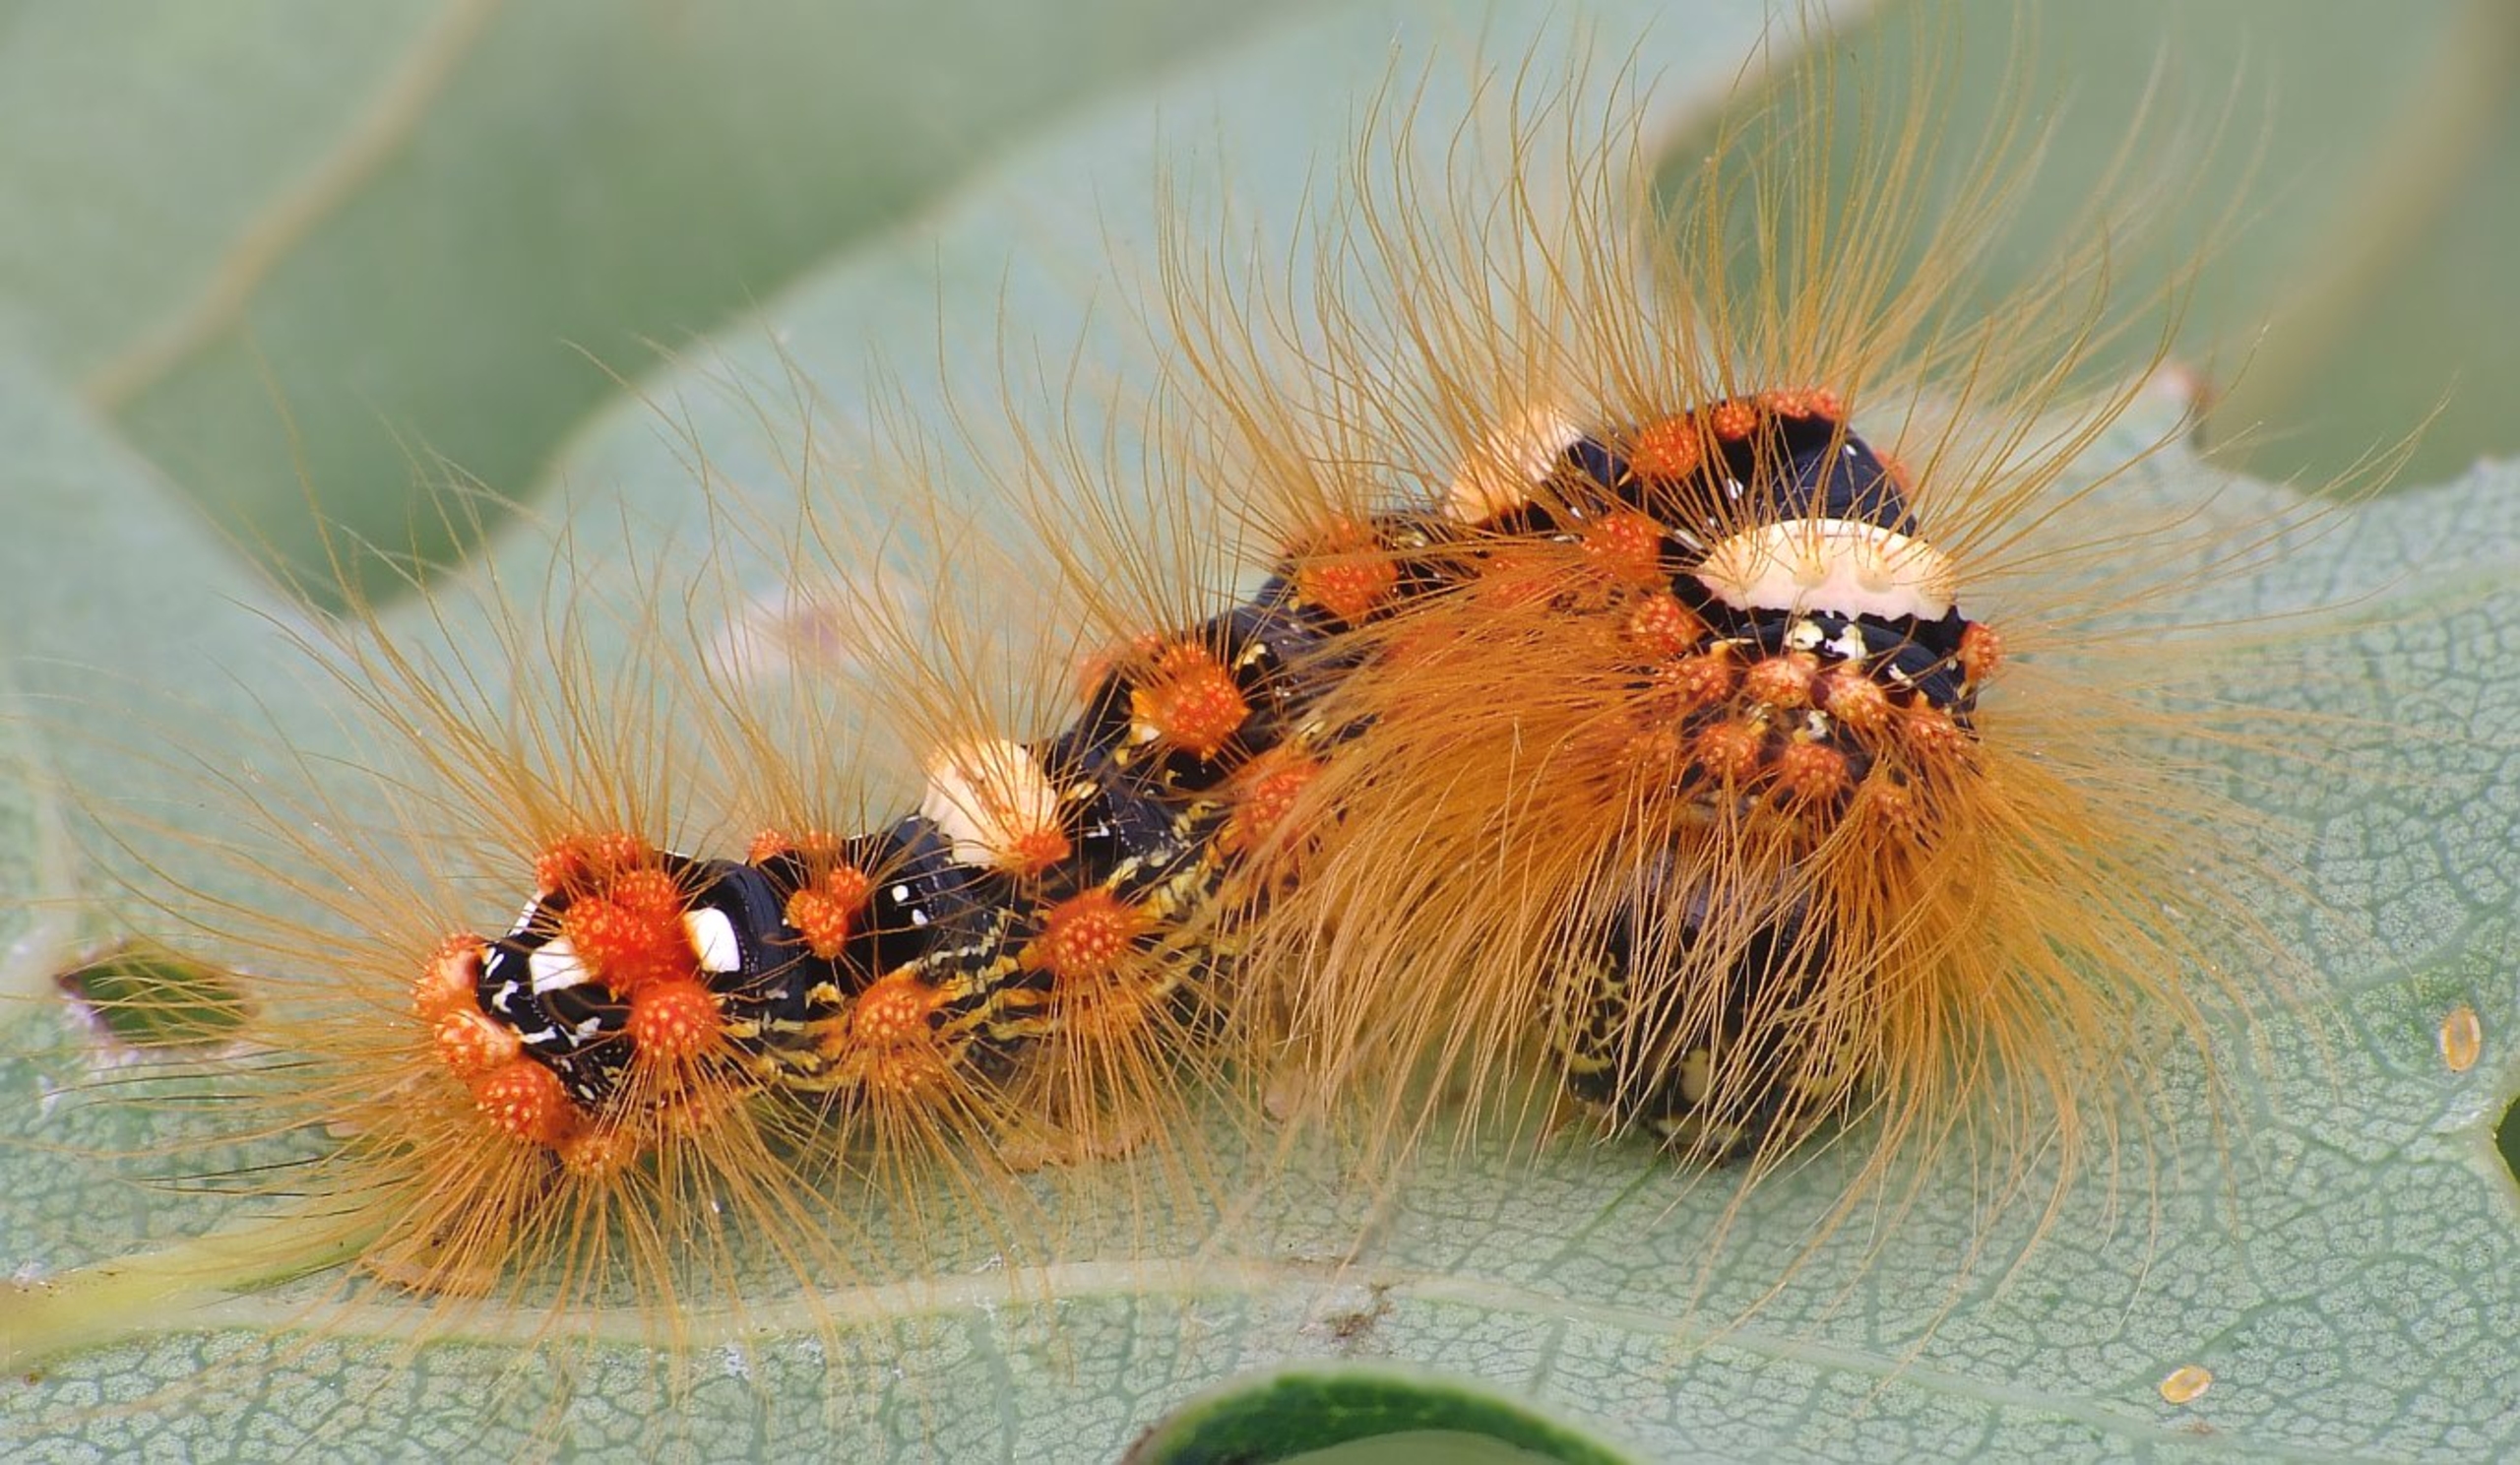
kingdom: Animalia
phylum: Arthropoda
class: Insecta
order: Lepidoptera
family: Noctuidae
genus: Moma
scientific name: Moma alpium
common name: Marmorugle
